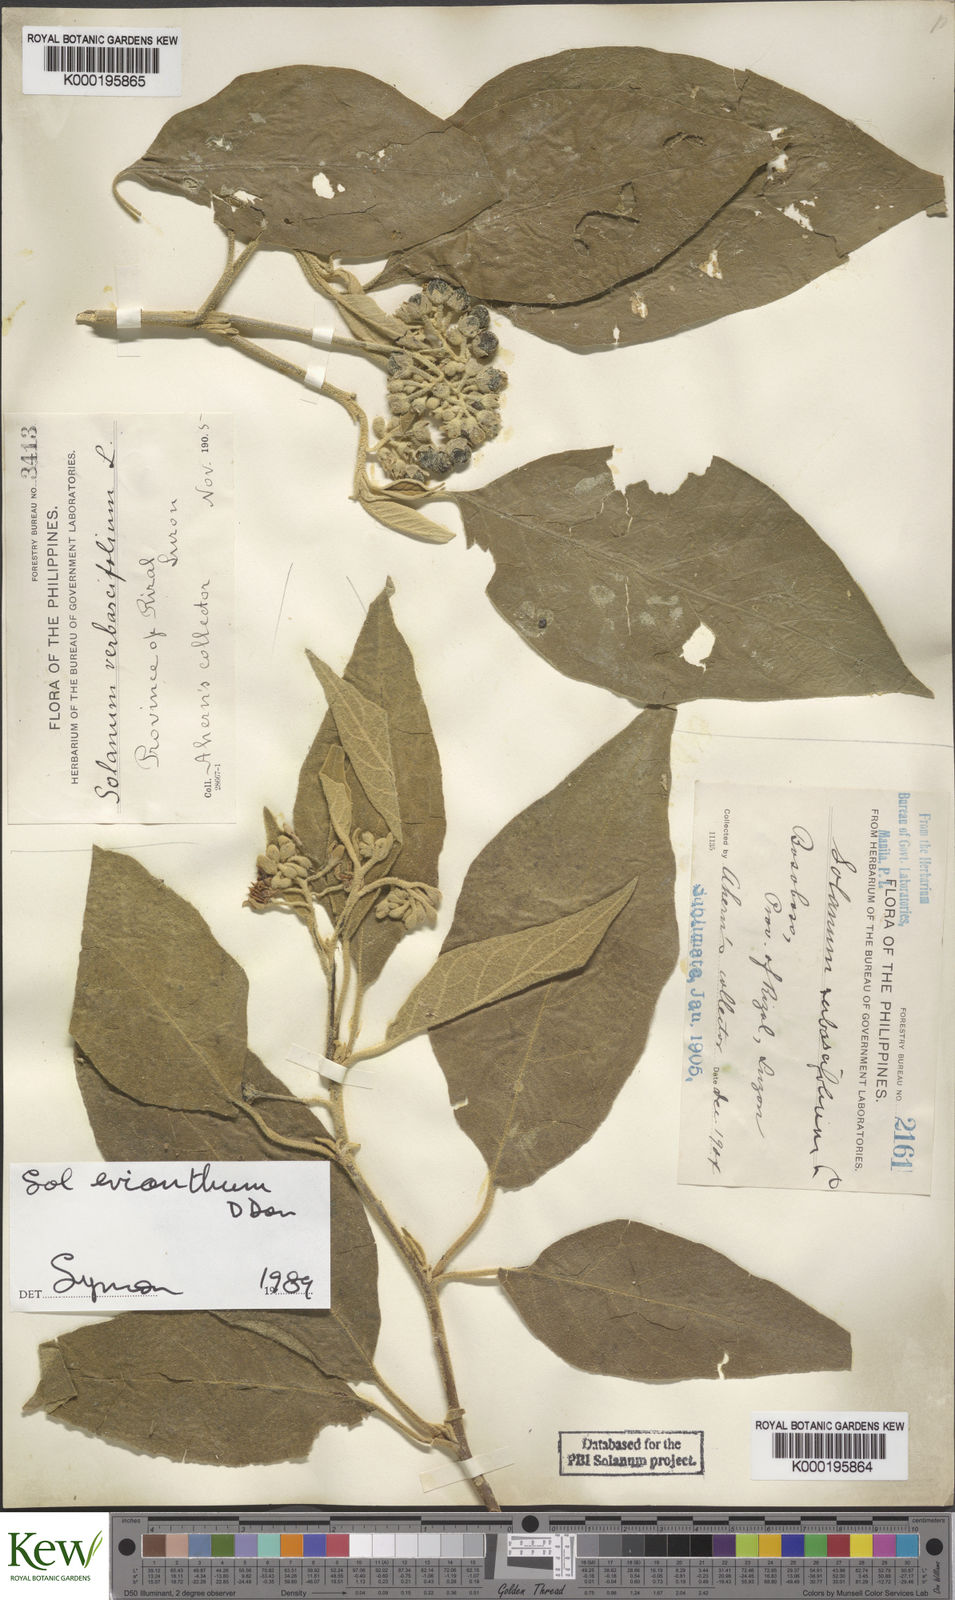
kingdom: Plantae
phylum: Tracheophyta
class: Magnoliopsida
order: Solanales
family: Solanaceae
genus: Solanum
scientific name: Solanum erianthum
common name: Tobacco-tree
